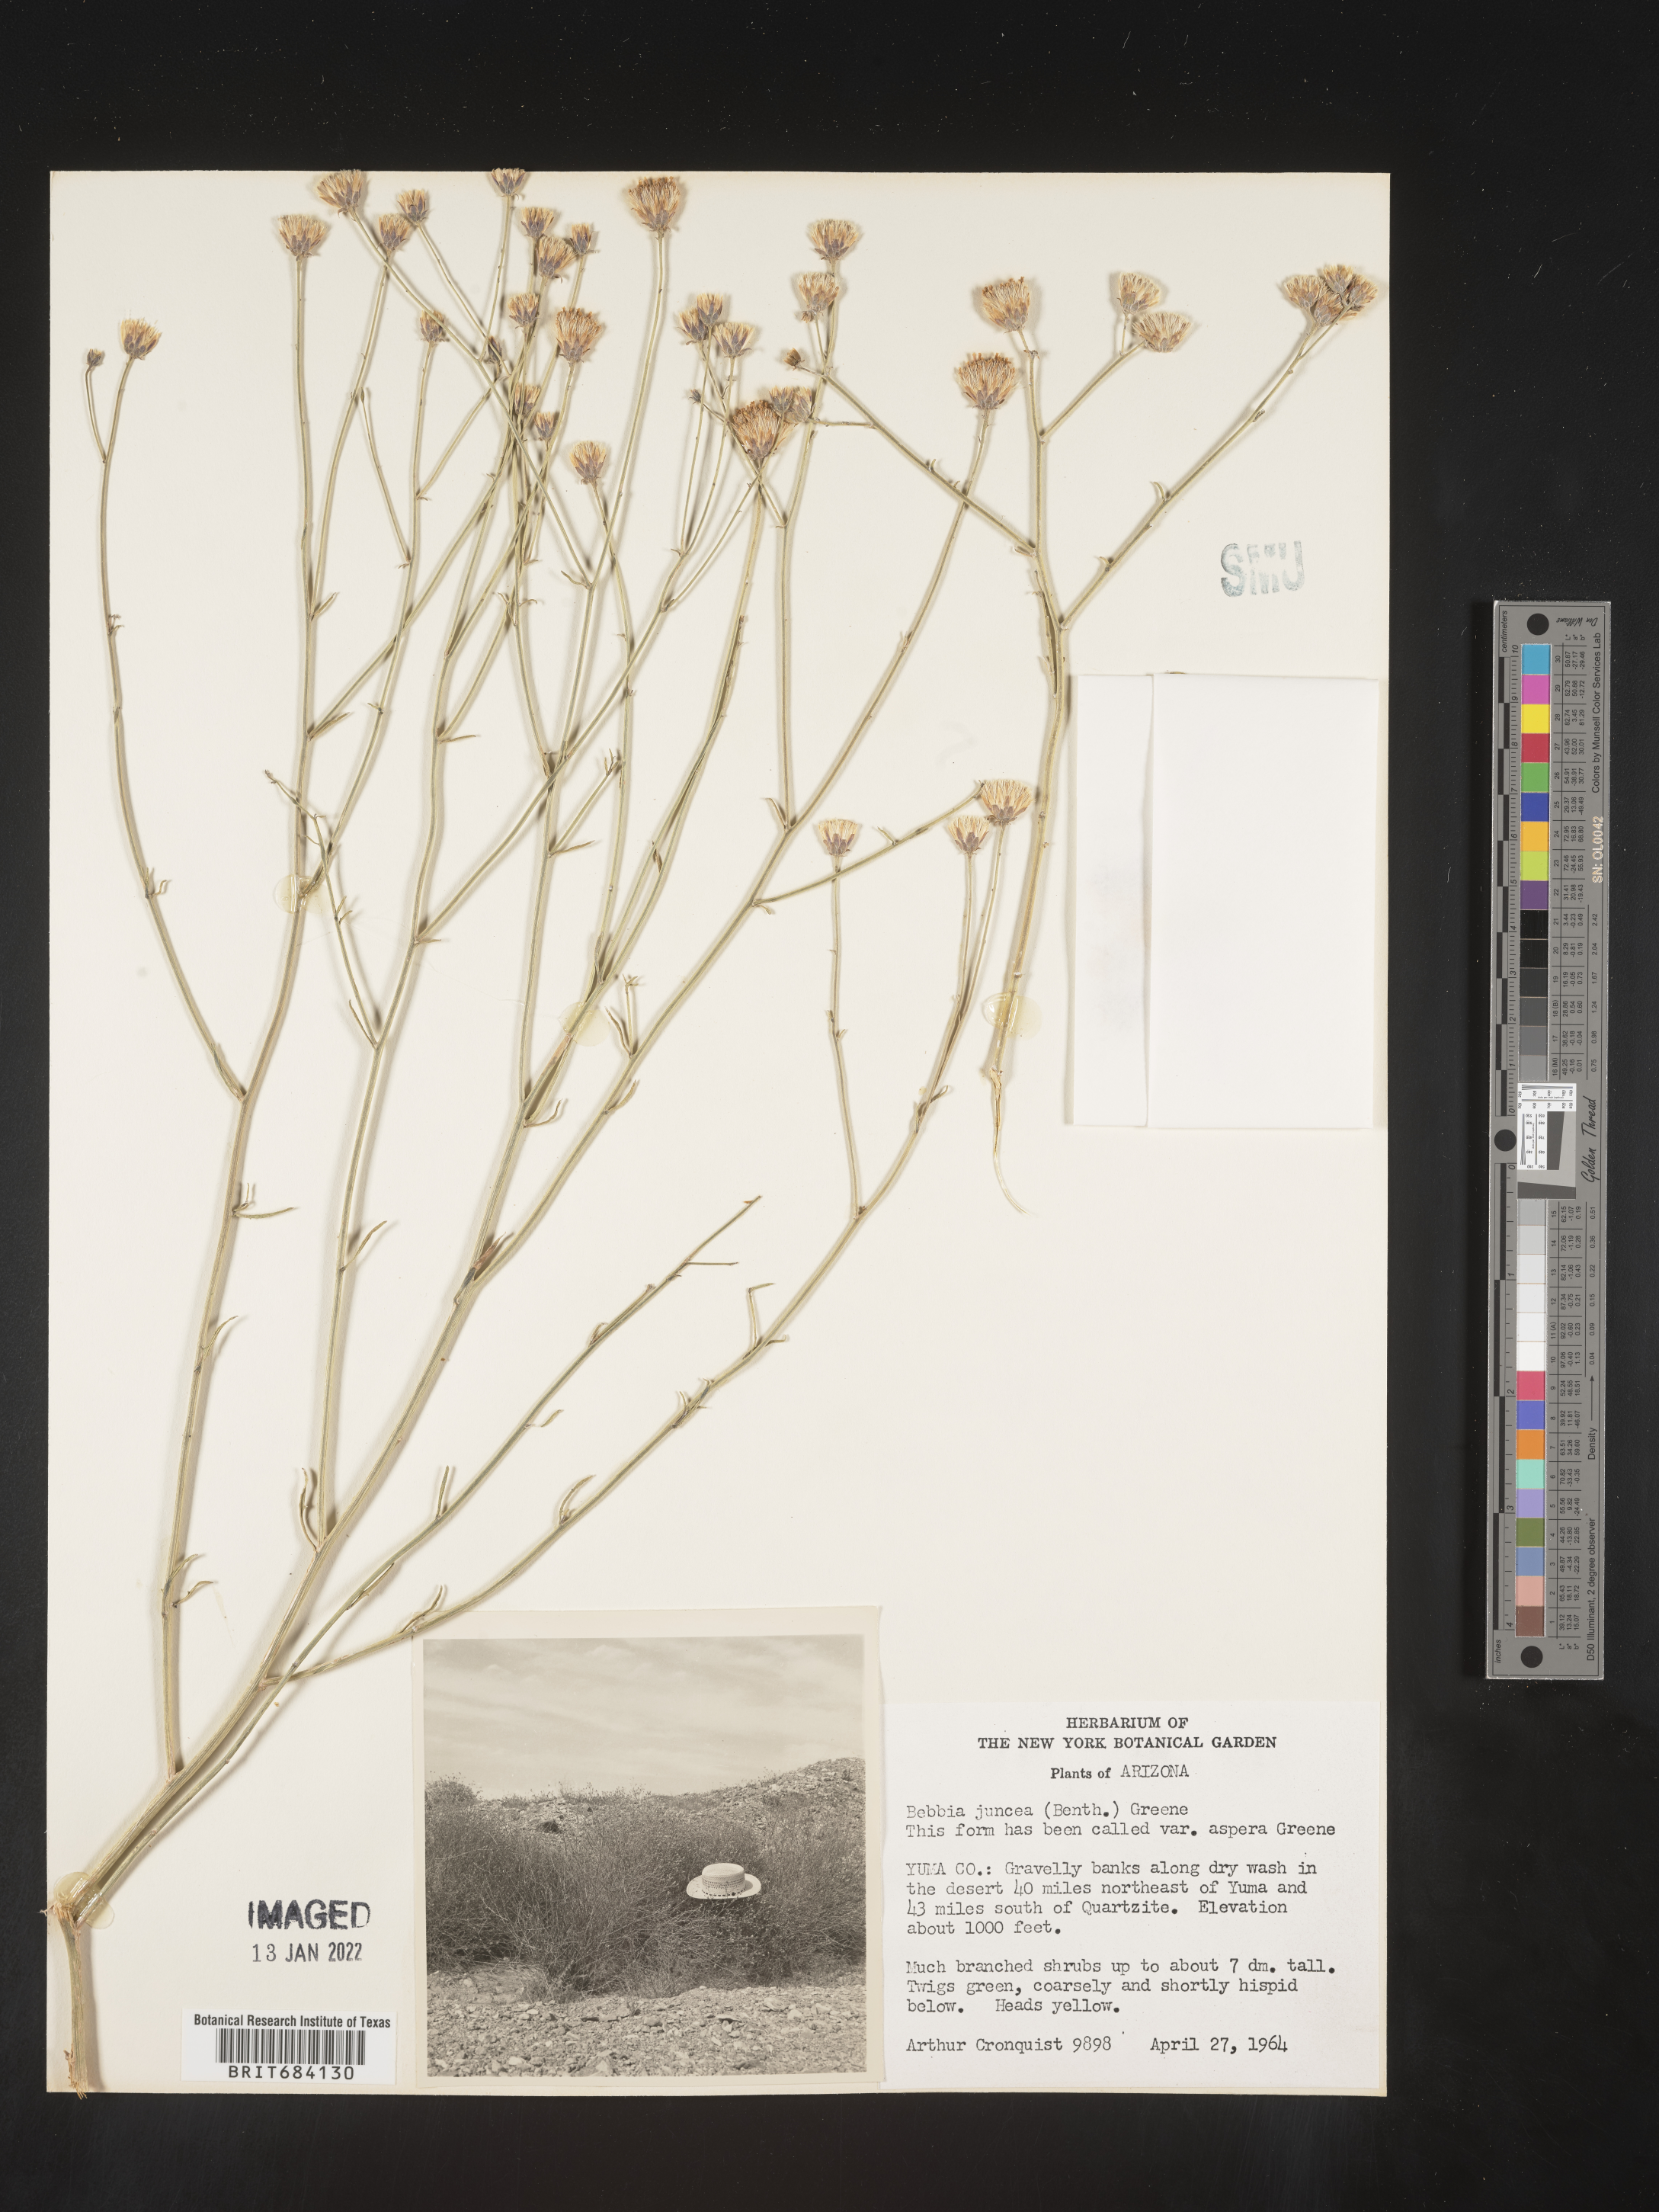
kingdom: Plantae
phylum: Tracheophyta
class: Magnoliopsida
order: Asterales
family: Asteraceae
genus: Bebbia
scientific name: Bebbia
